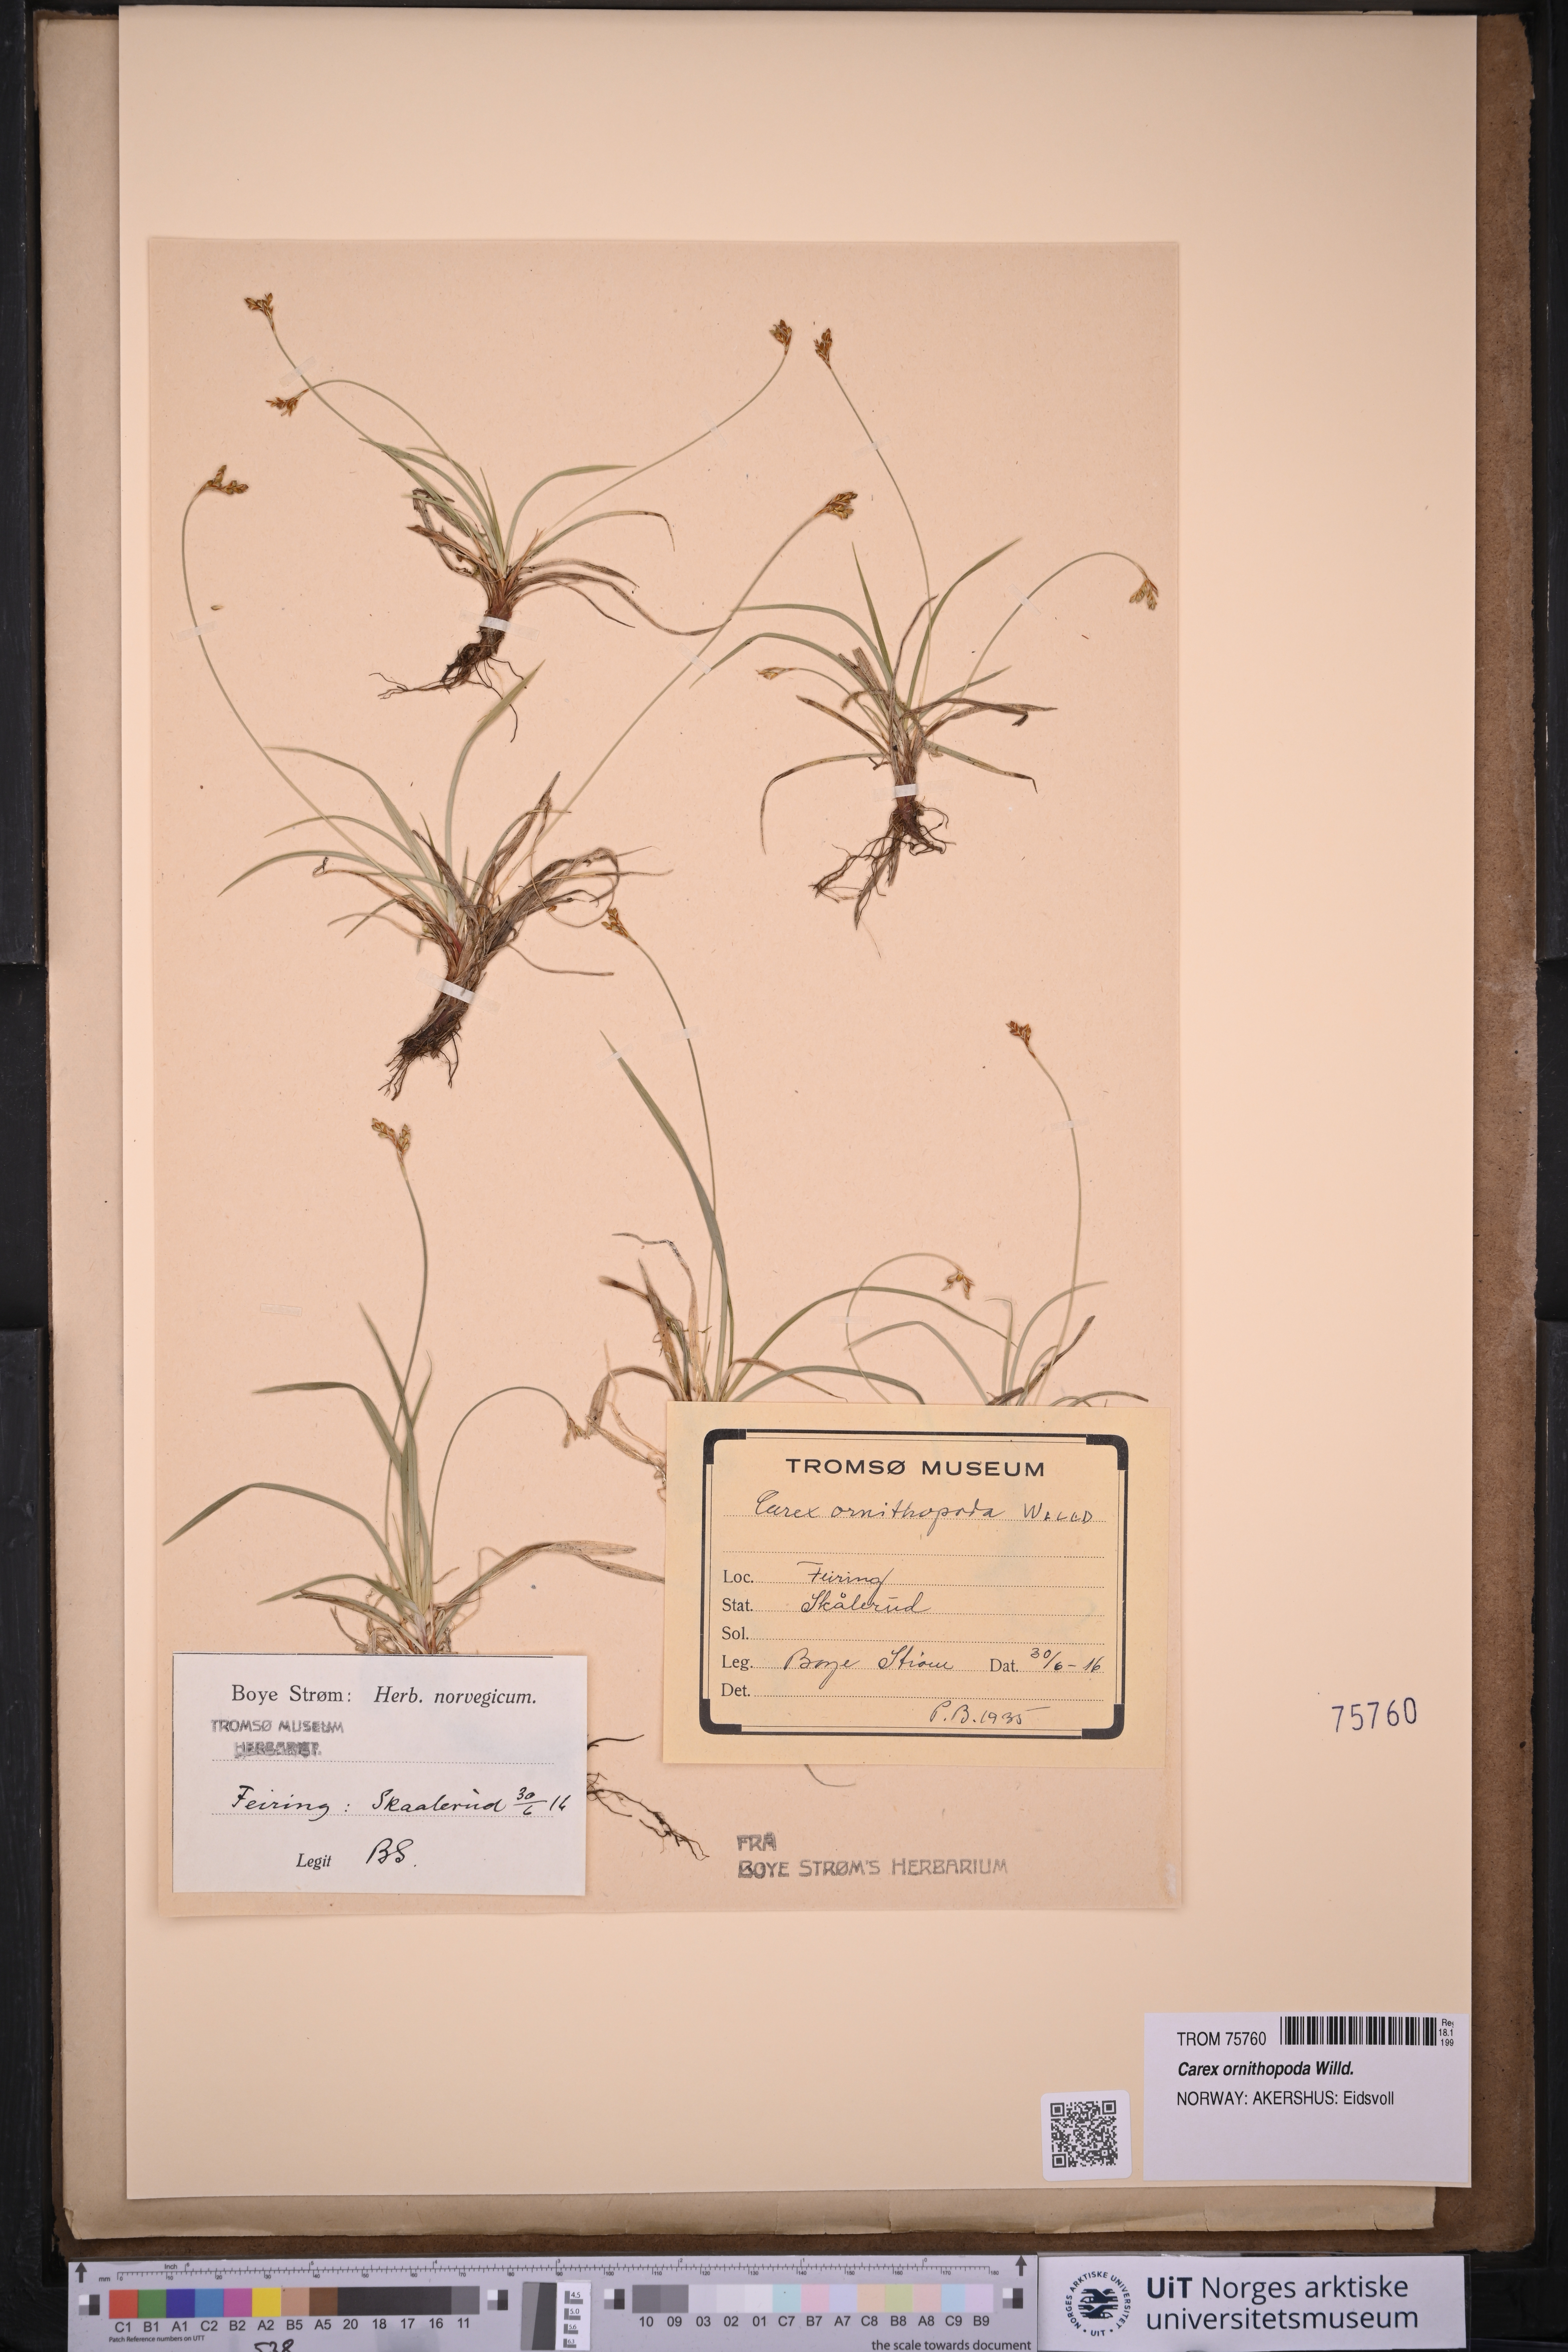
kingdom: Plantae
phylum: Tracheophyta
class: Liliopsida
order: Poales
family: Cyperaceae
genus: Carex
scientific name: Carex ornithopoda
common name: Bird's-foot sedge
